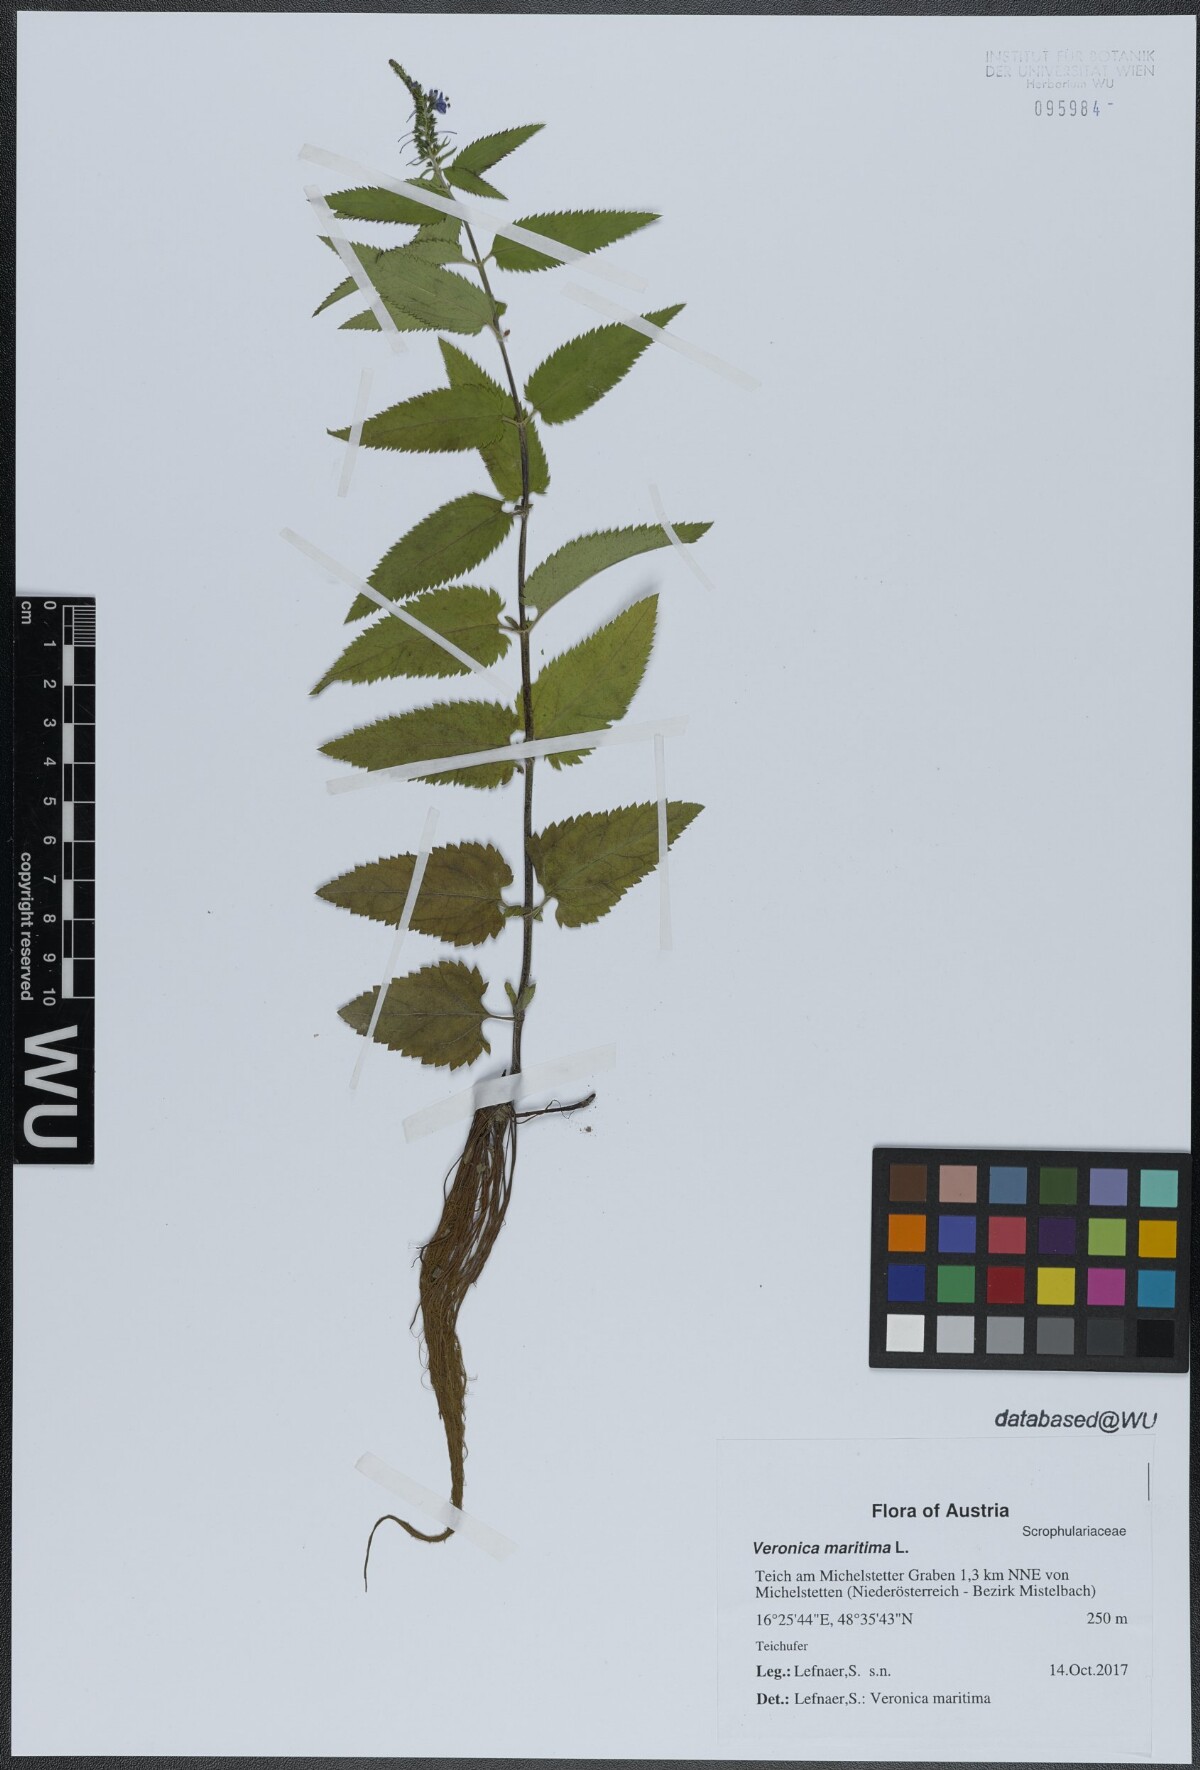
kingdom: Plantae
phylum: Tracheophyta
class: Magnoliopsida
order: Lamiales
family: Plantaginaceae
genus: Veronica
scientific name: Veronica maritima
